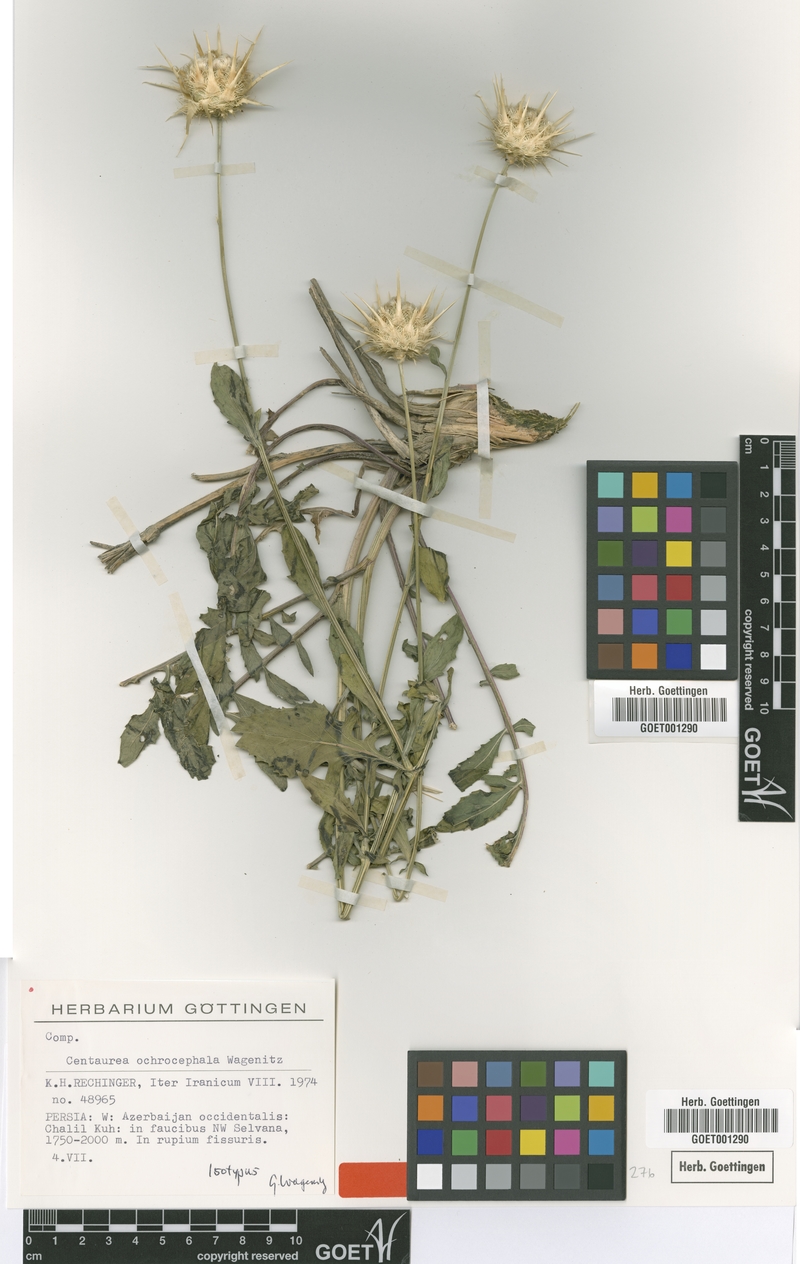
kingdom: Plantae
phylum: Tracheophyta
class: Magnoliopsida
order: Asterales
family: Asteraceae
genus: Centaurea
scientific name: Centaurea ochrocephala
